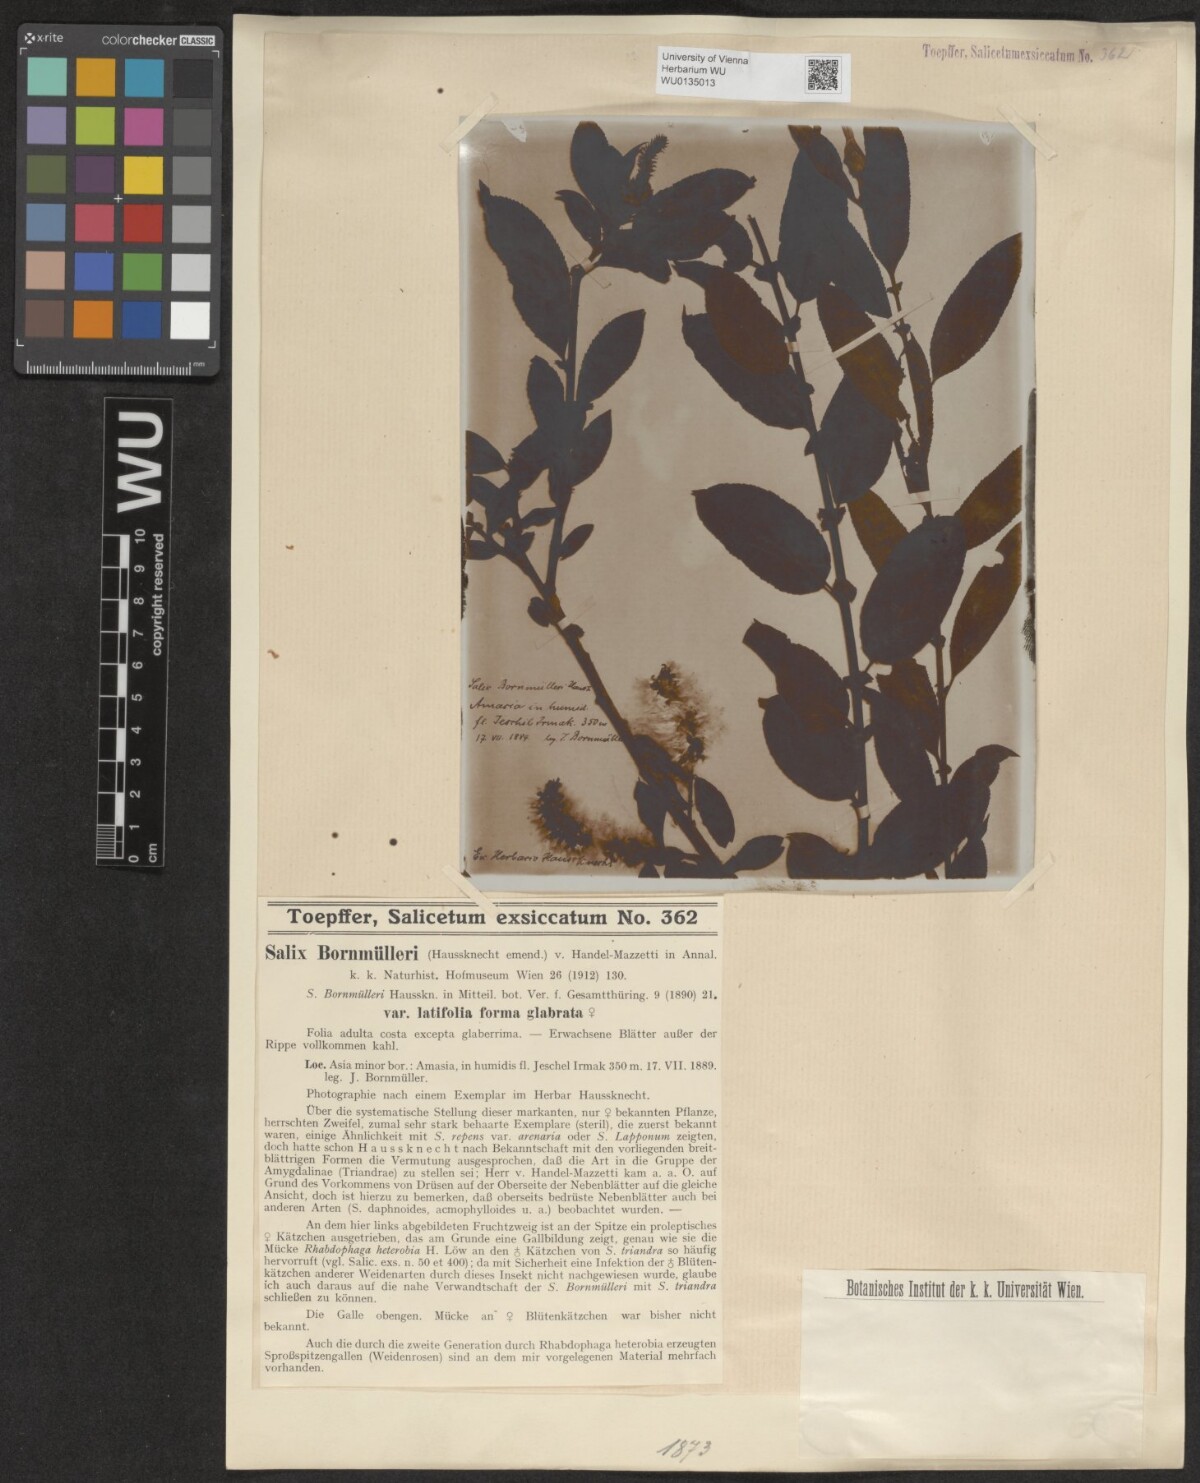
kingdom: Plantae
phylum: Tracheophyta
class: Magnoliopsida
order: Malpighiales
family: Salicaceae
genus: Salix
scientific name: Salix triandra
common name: Almond willow
